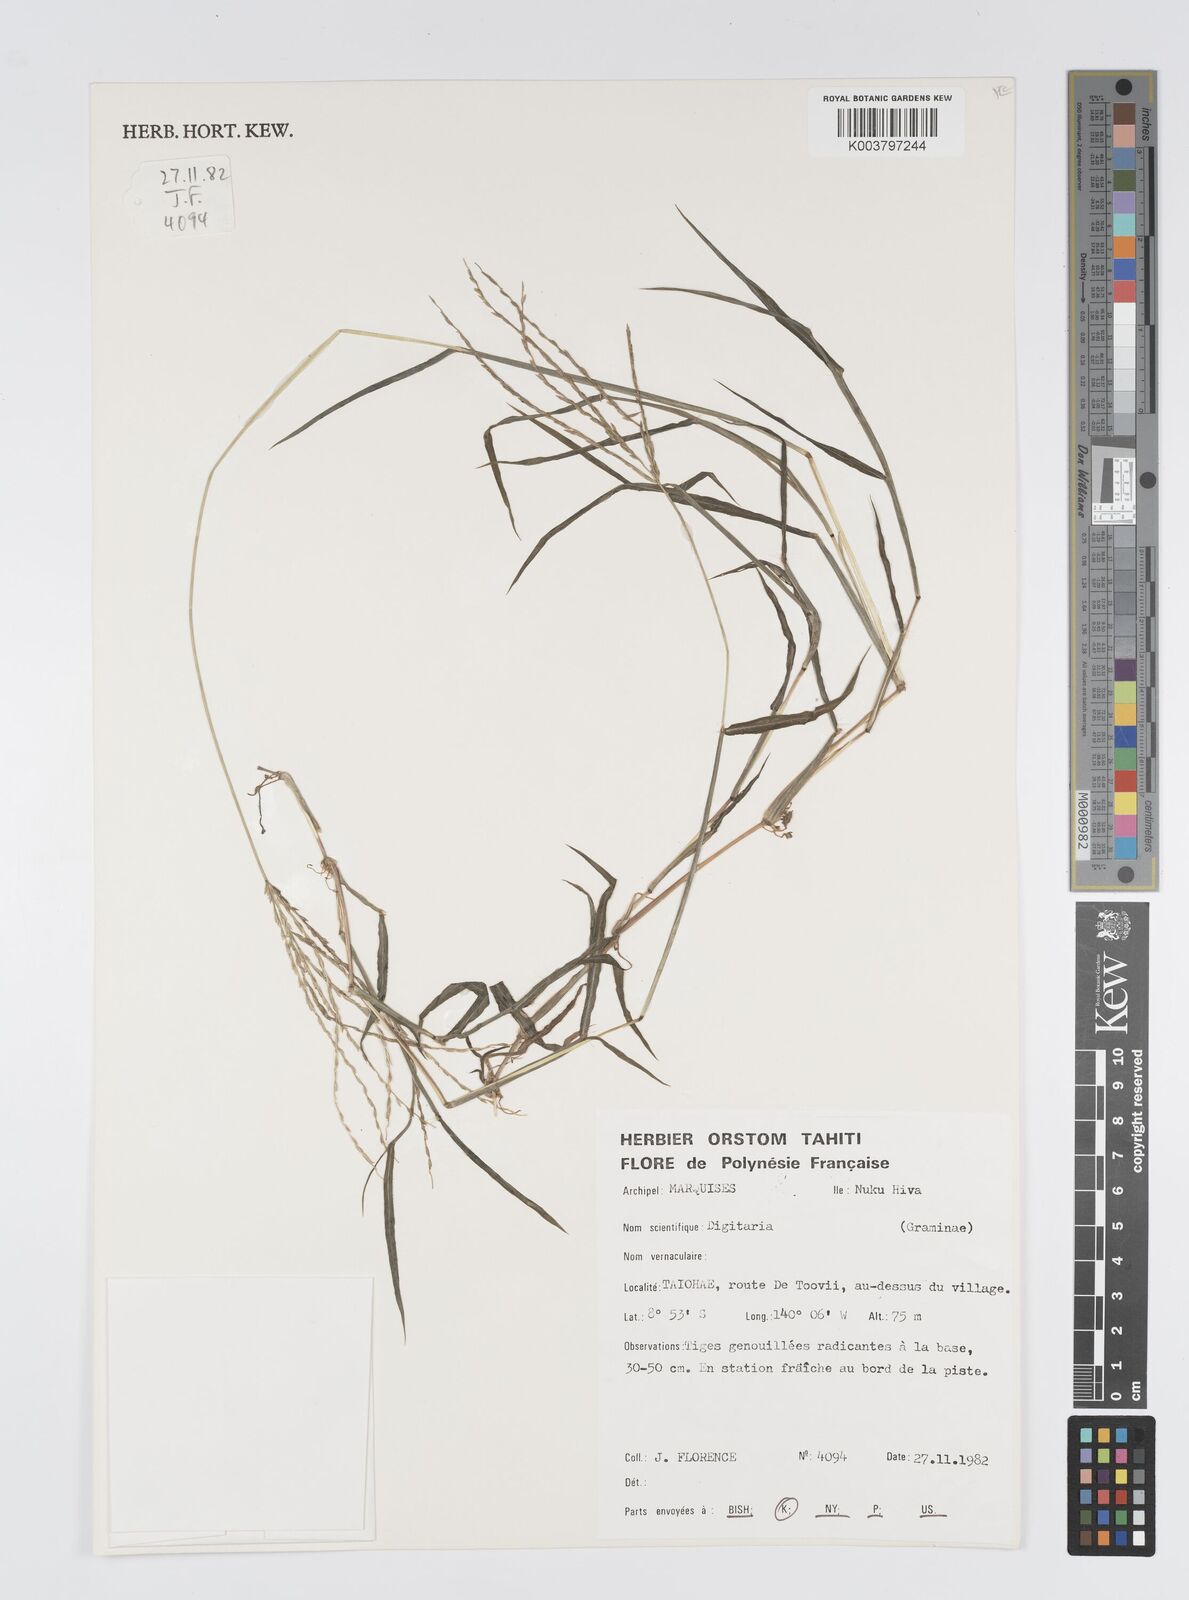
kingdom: Plantae
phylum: Tracheophyta
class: Liliopsida
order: Poales
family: Poaceae
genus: Digitaria
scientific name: Digitaria ciliaris
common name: Tropical finger-grass
